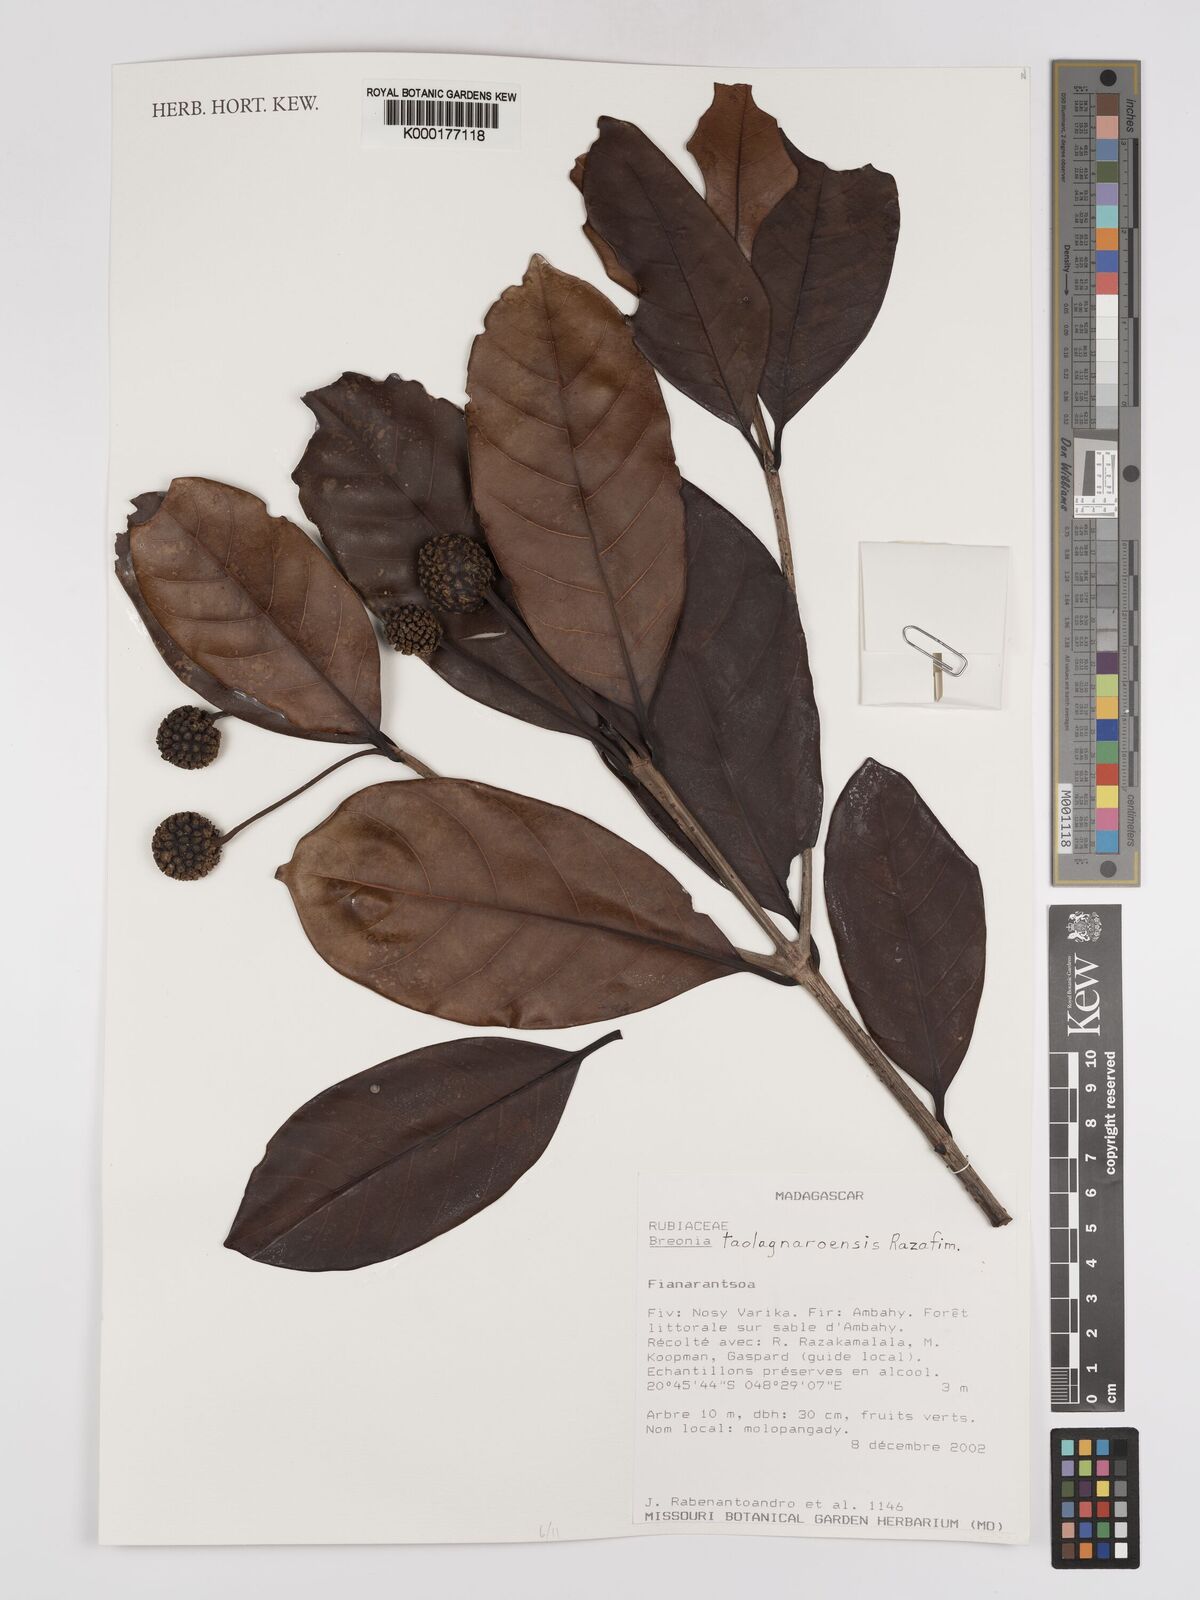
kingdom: Plantae
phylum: Tracheophyta
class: Magnoliopsida
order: Gentianales
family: Rubiaceae
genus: Breonia
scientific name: Breonia taolagnaroensis
